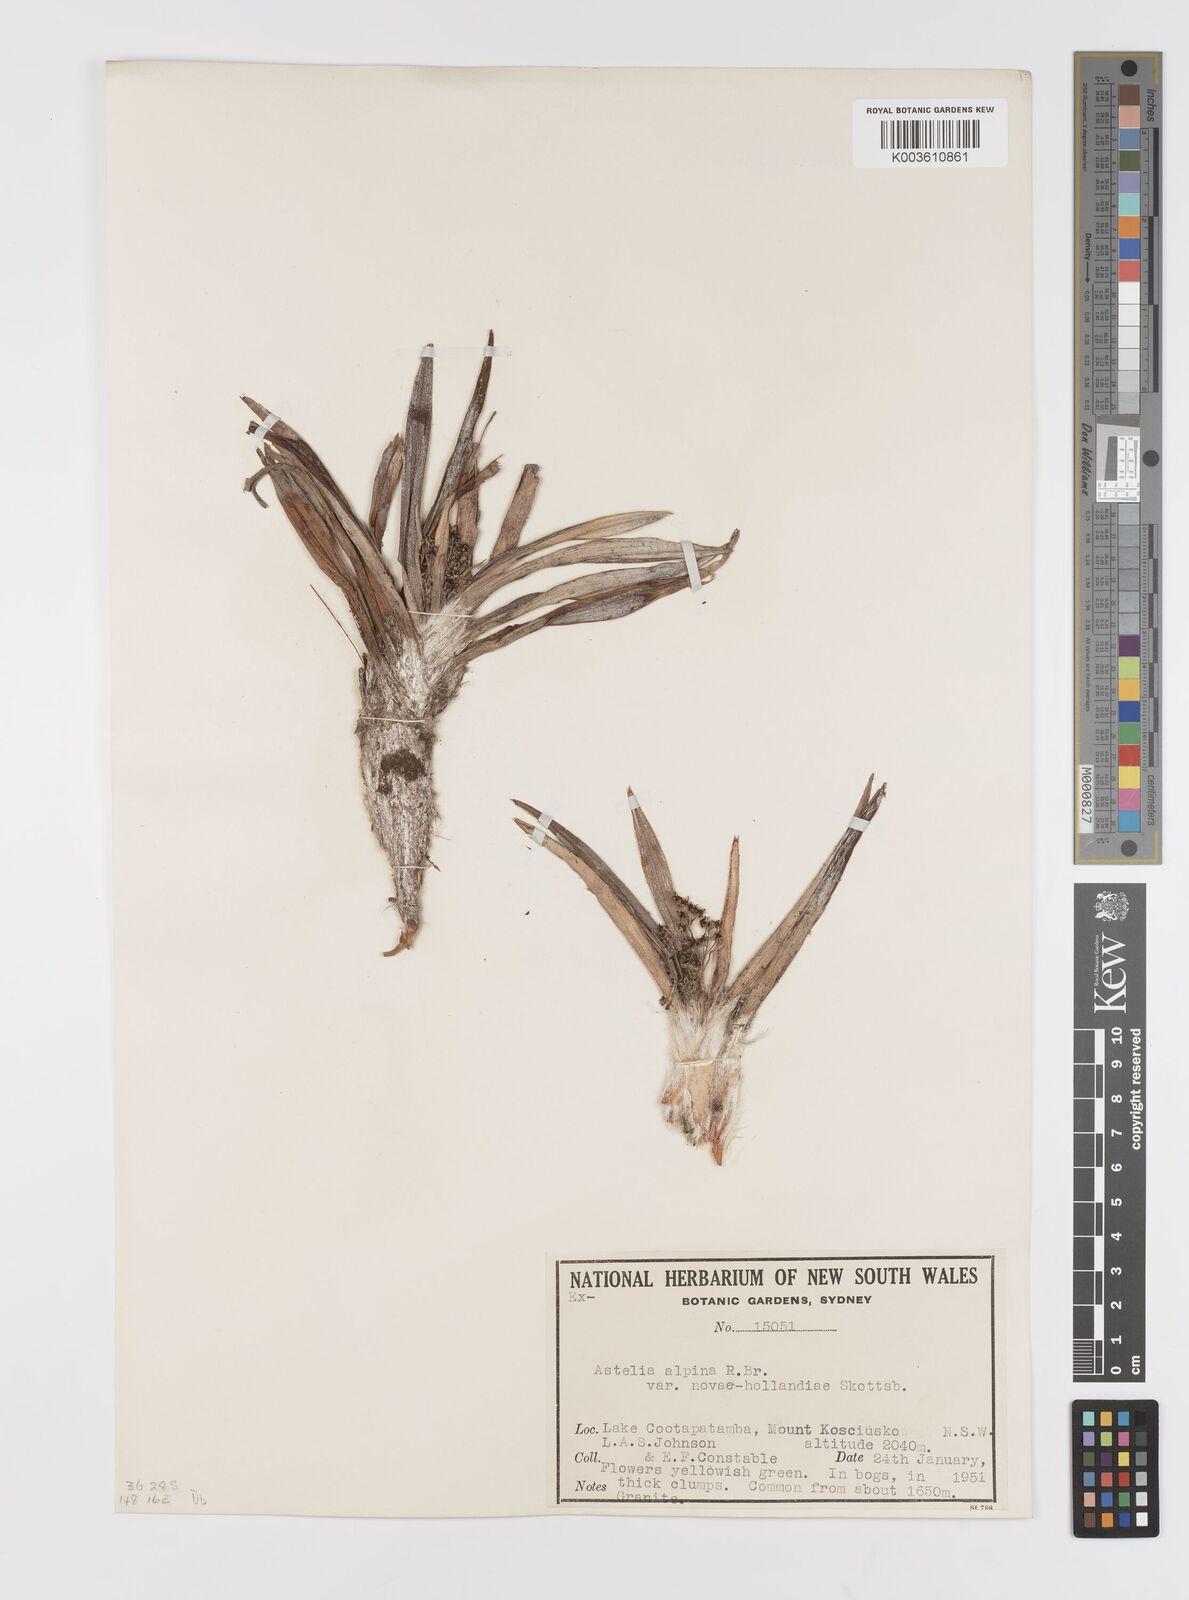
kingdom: Plantae
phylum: Tracheophyta
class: Liliopsida
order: Asparagales
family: Asteliaceae
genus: Astelia
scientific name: Astelia alpina
